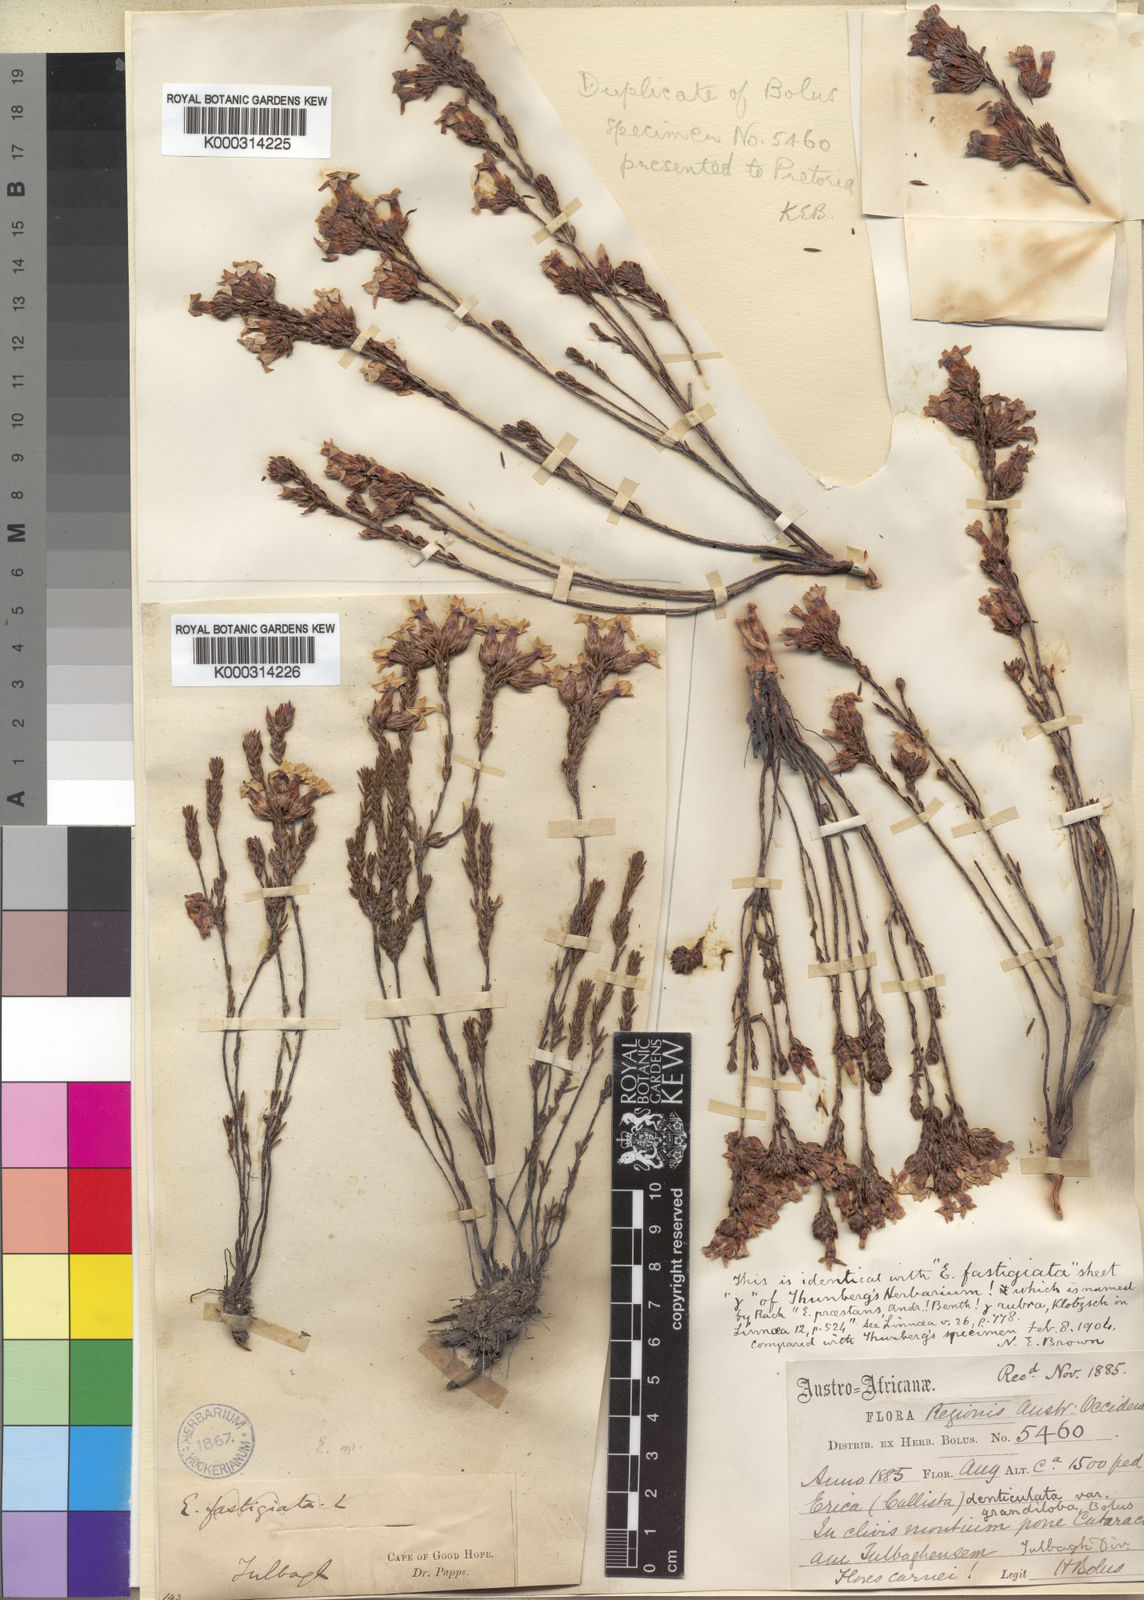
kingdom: Plantae
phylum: Tracheophyta
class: Magnoliopsida
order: Ericales
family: Ericaceae
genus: Erica
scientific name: Erica denticulata
